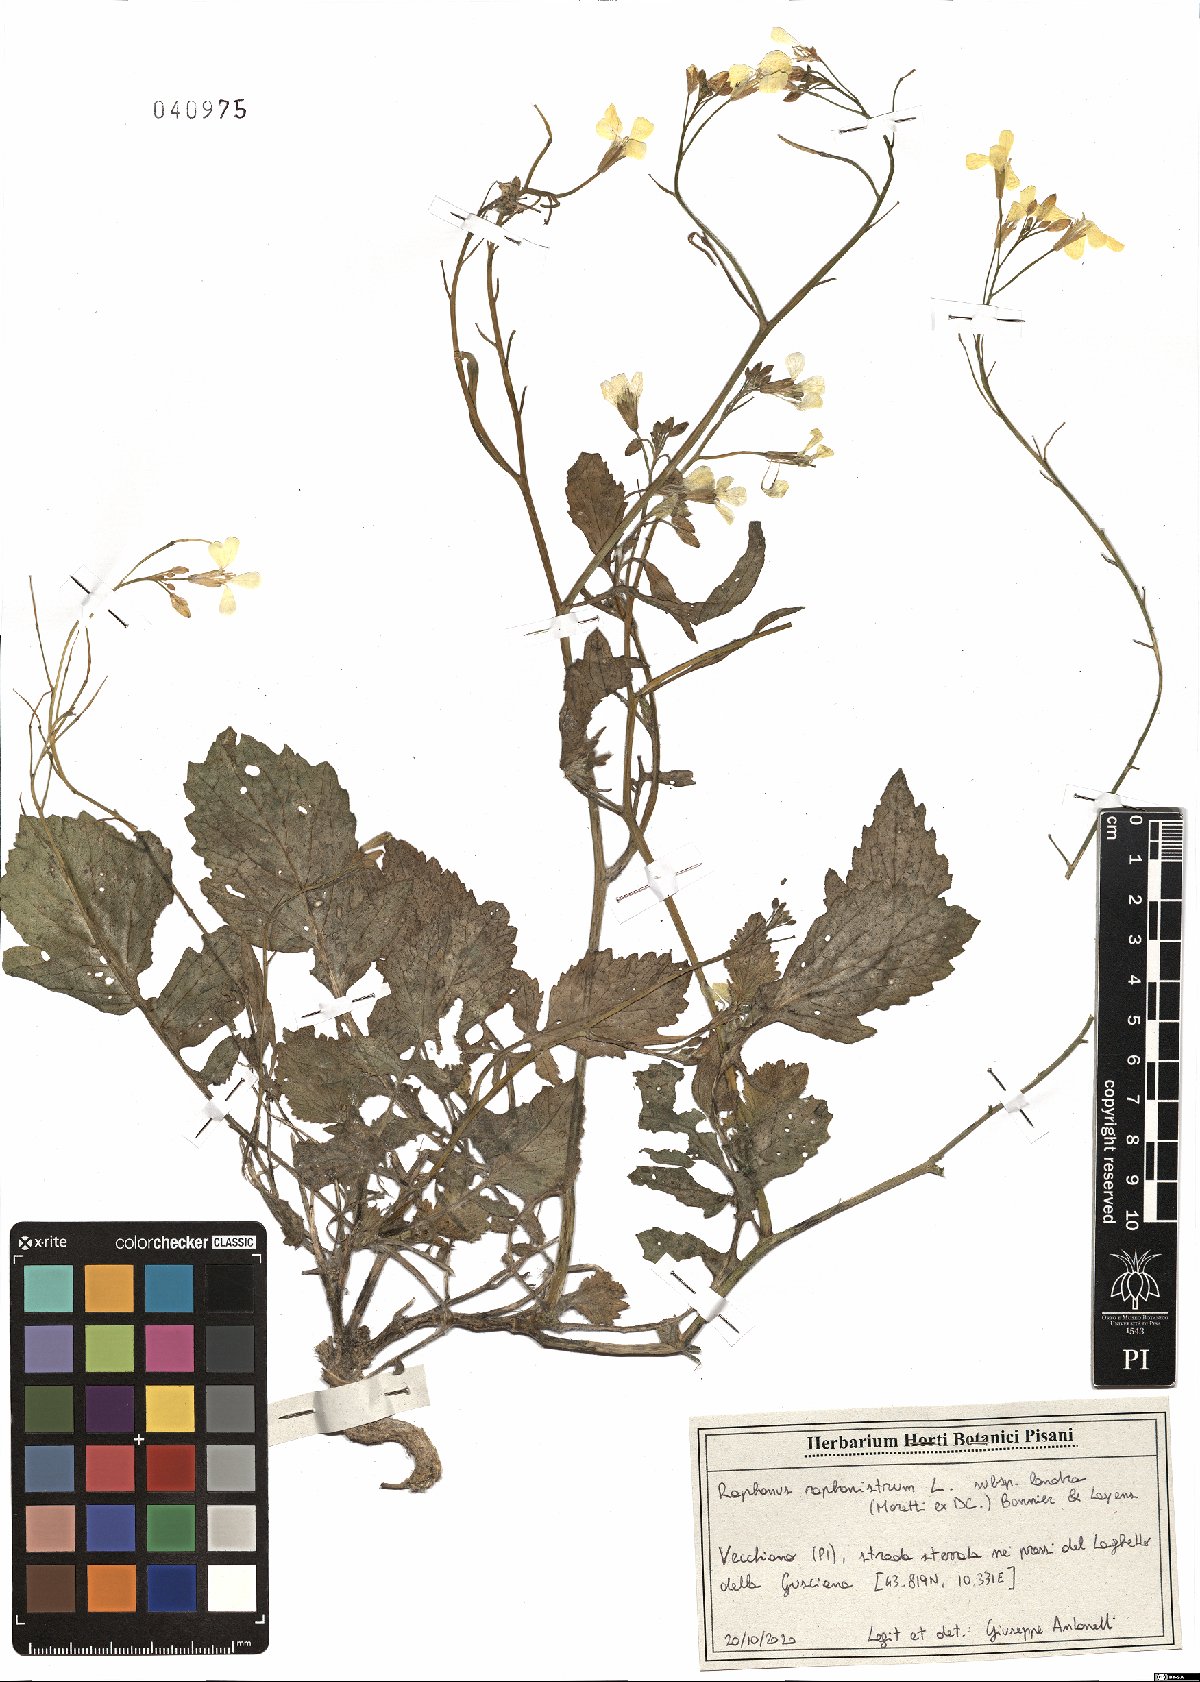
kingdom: Plantae
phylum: Tracheophyta
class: Magnoliopsida
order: Brassicales
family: Brassicaceae
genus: Raphanus
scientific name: Raphanus raphanistrum
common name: Wild radish
